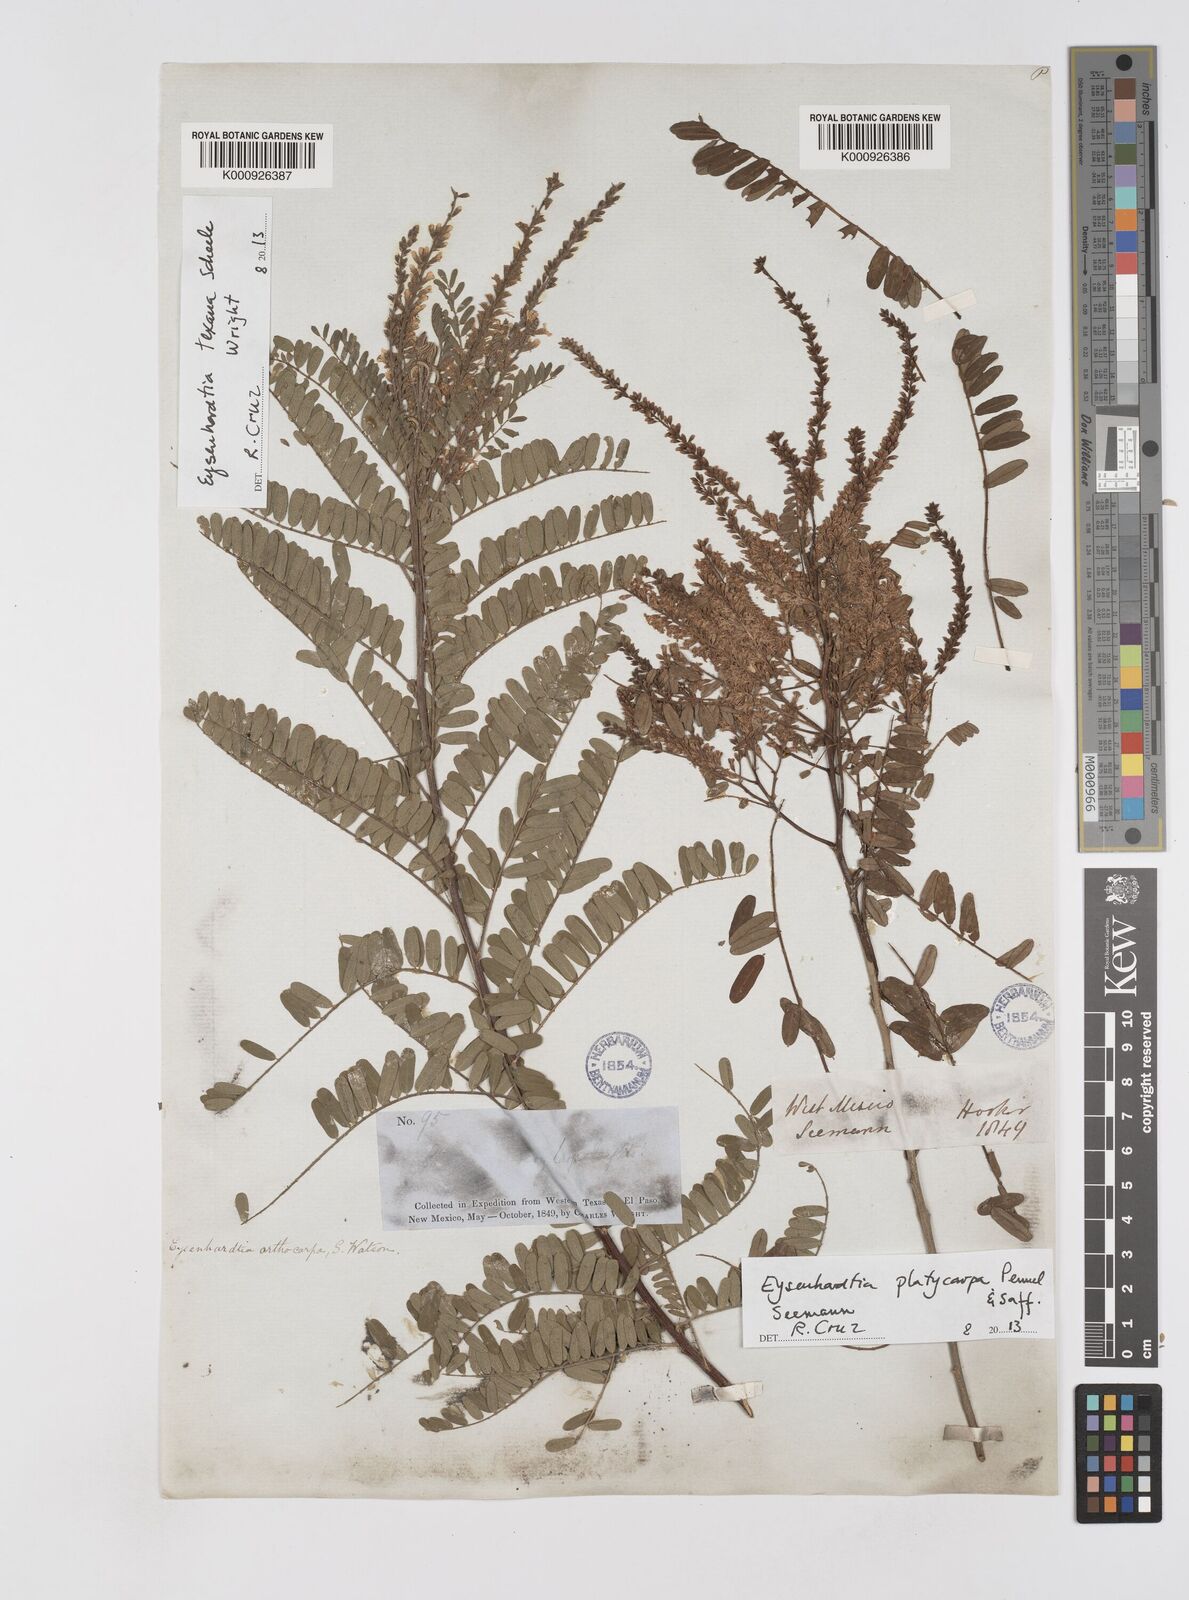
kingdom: Plantae
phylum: Tracheophyta
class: Magnoliopsida
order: Fabales
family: Fabaceae
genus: Eysenhardtia
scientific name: Eysenhardtia platycarpa
